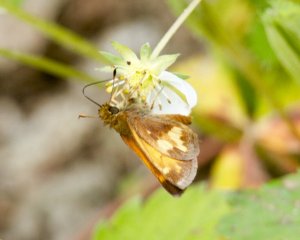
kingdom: Animalia
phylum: Arthropoda
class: Insecta
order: Lepidoptera
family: Hesperiidae
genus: Lon
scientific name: Lon hobomok
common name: Hobomok Skipper
